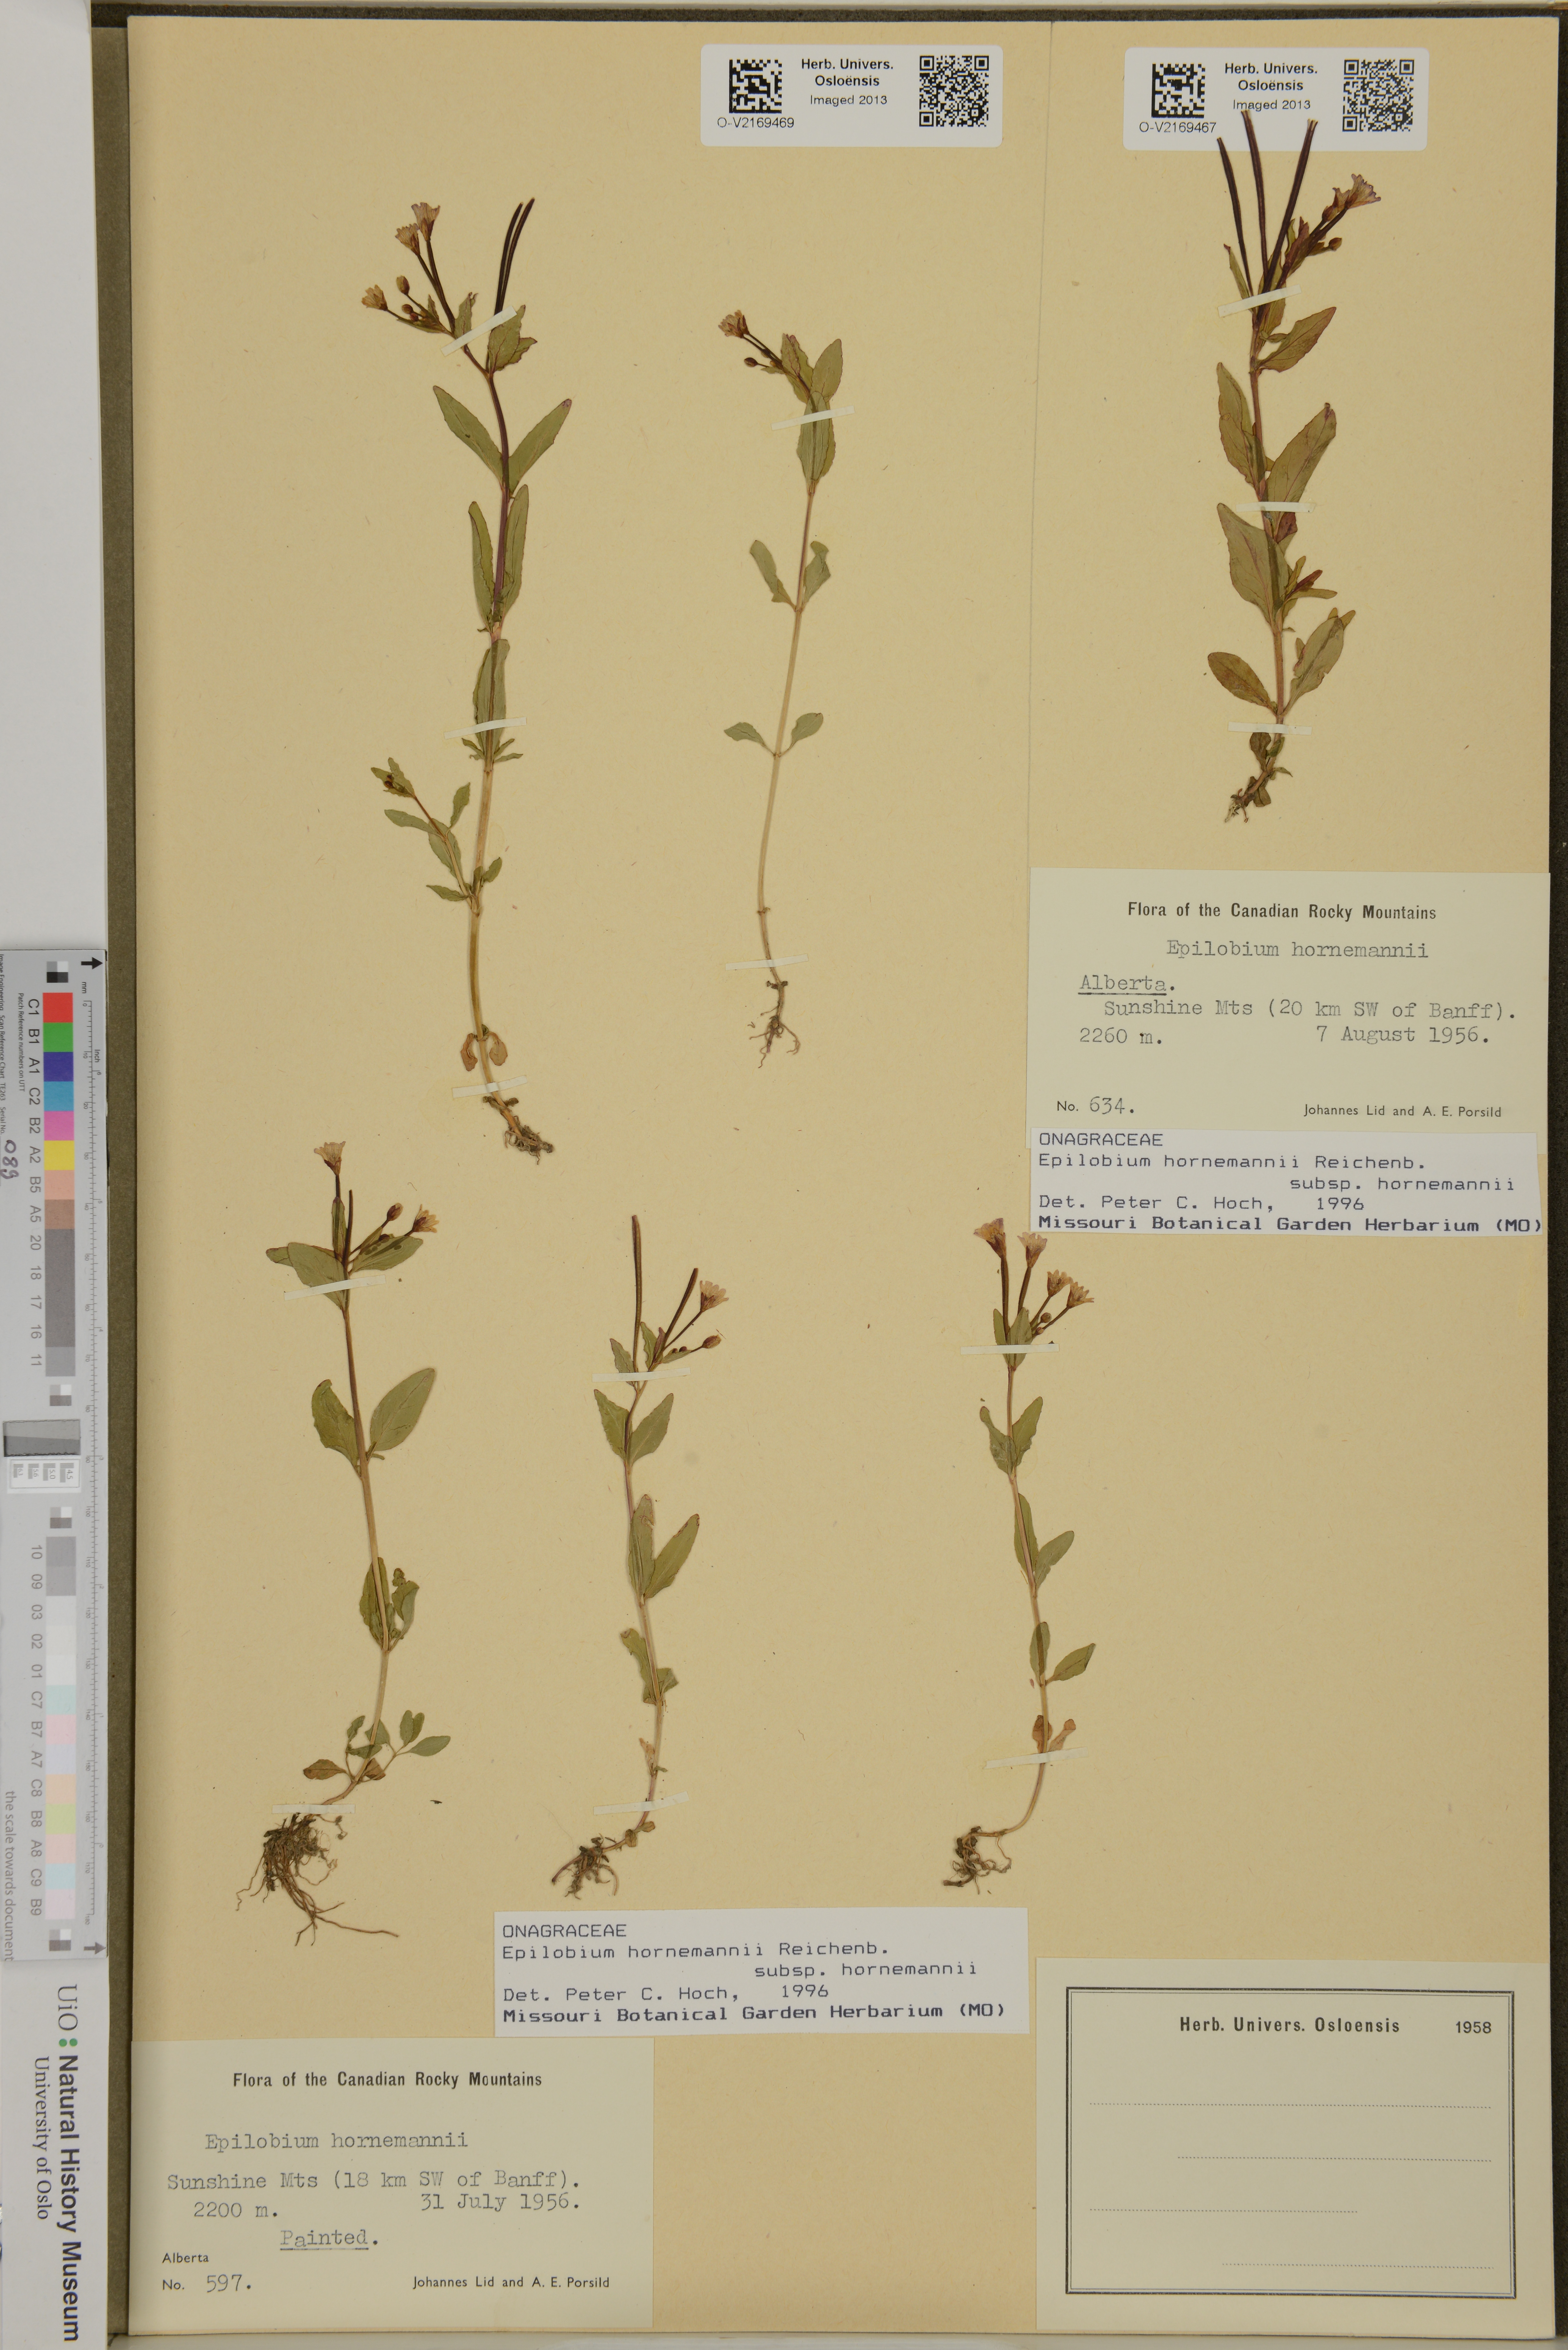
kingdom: Plantae
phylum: Tracheophyta
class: Magnoliopsida
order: Myrtales
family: Onagraceae
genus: Epilobium
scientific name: Epilobium hornemannii
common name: Hornemann's willowherb
